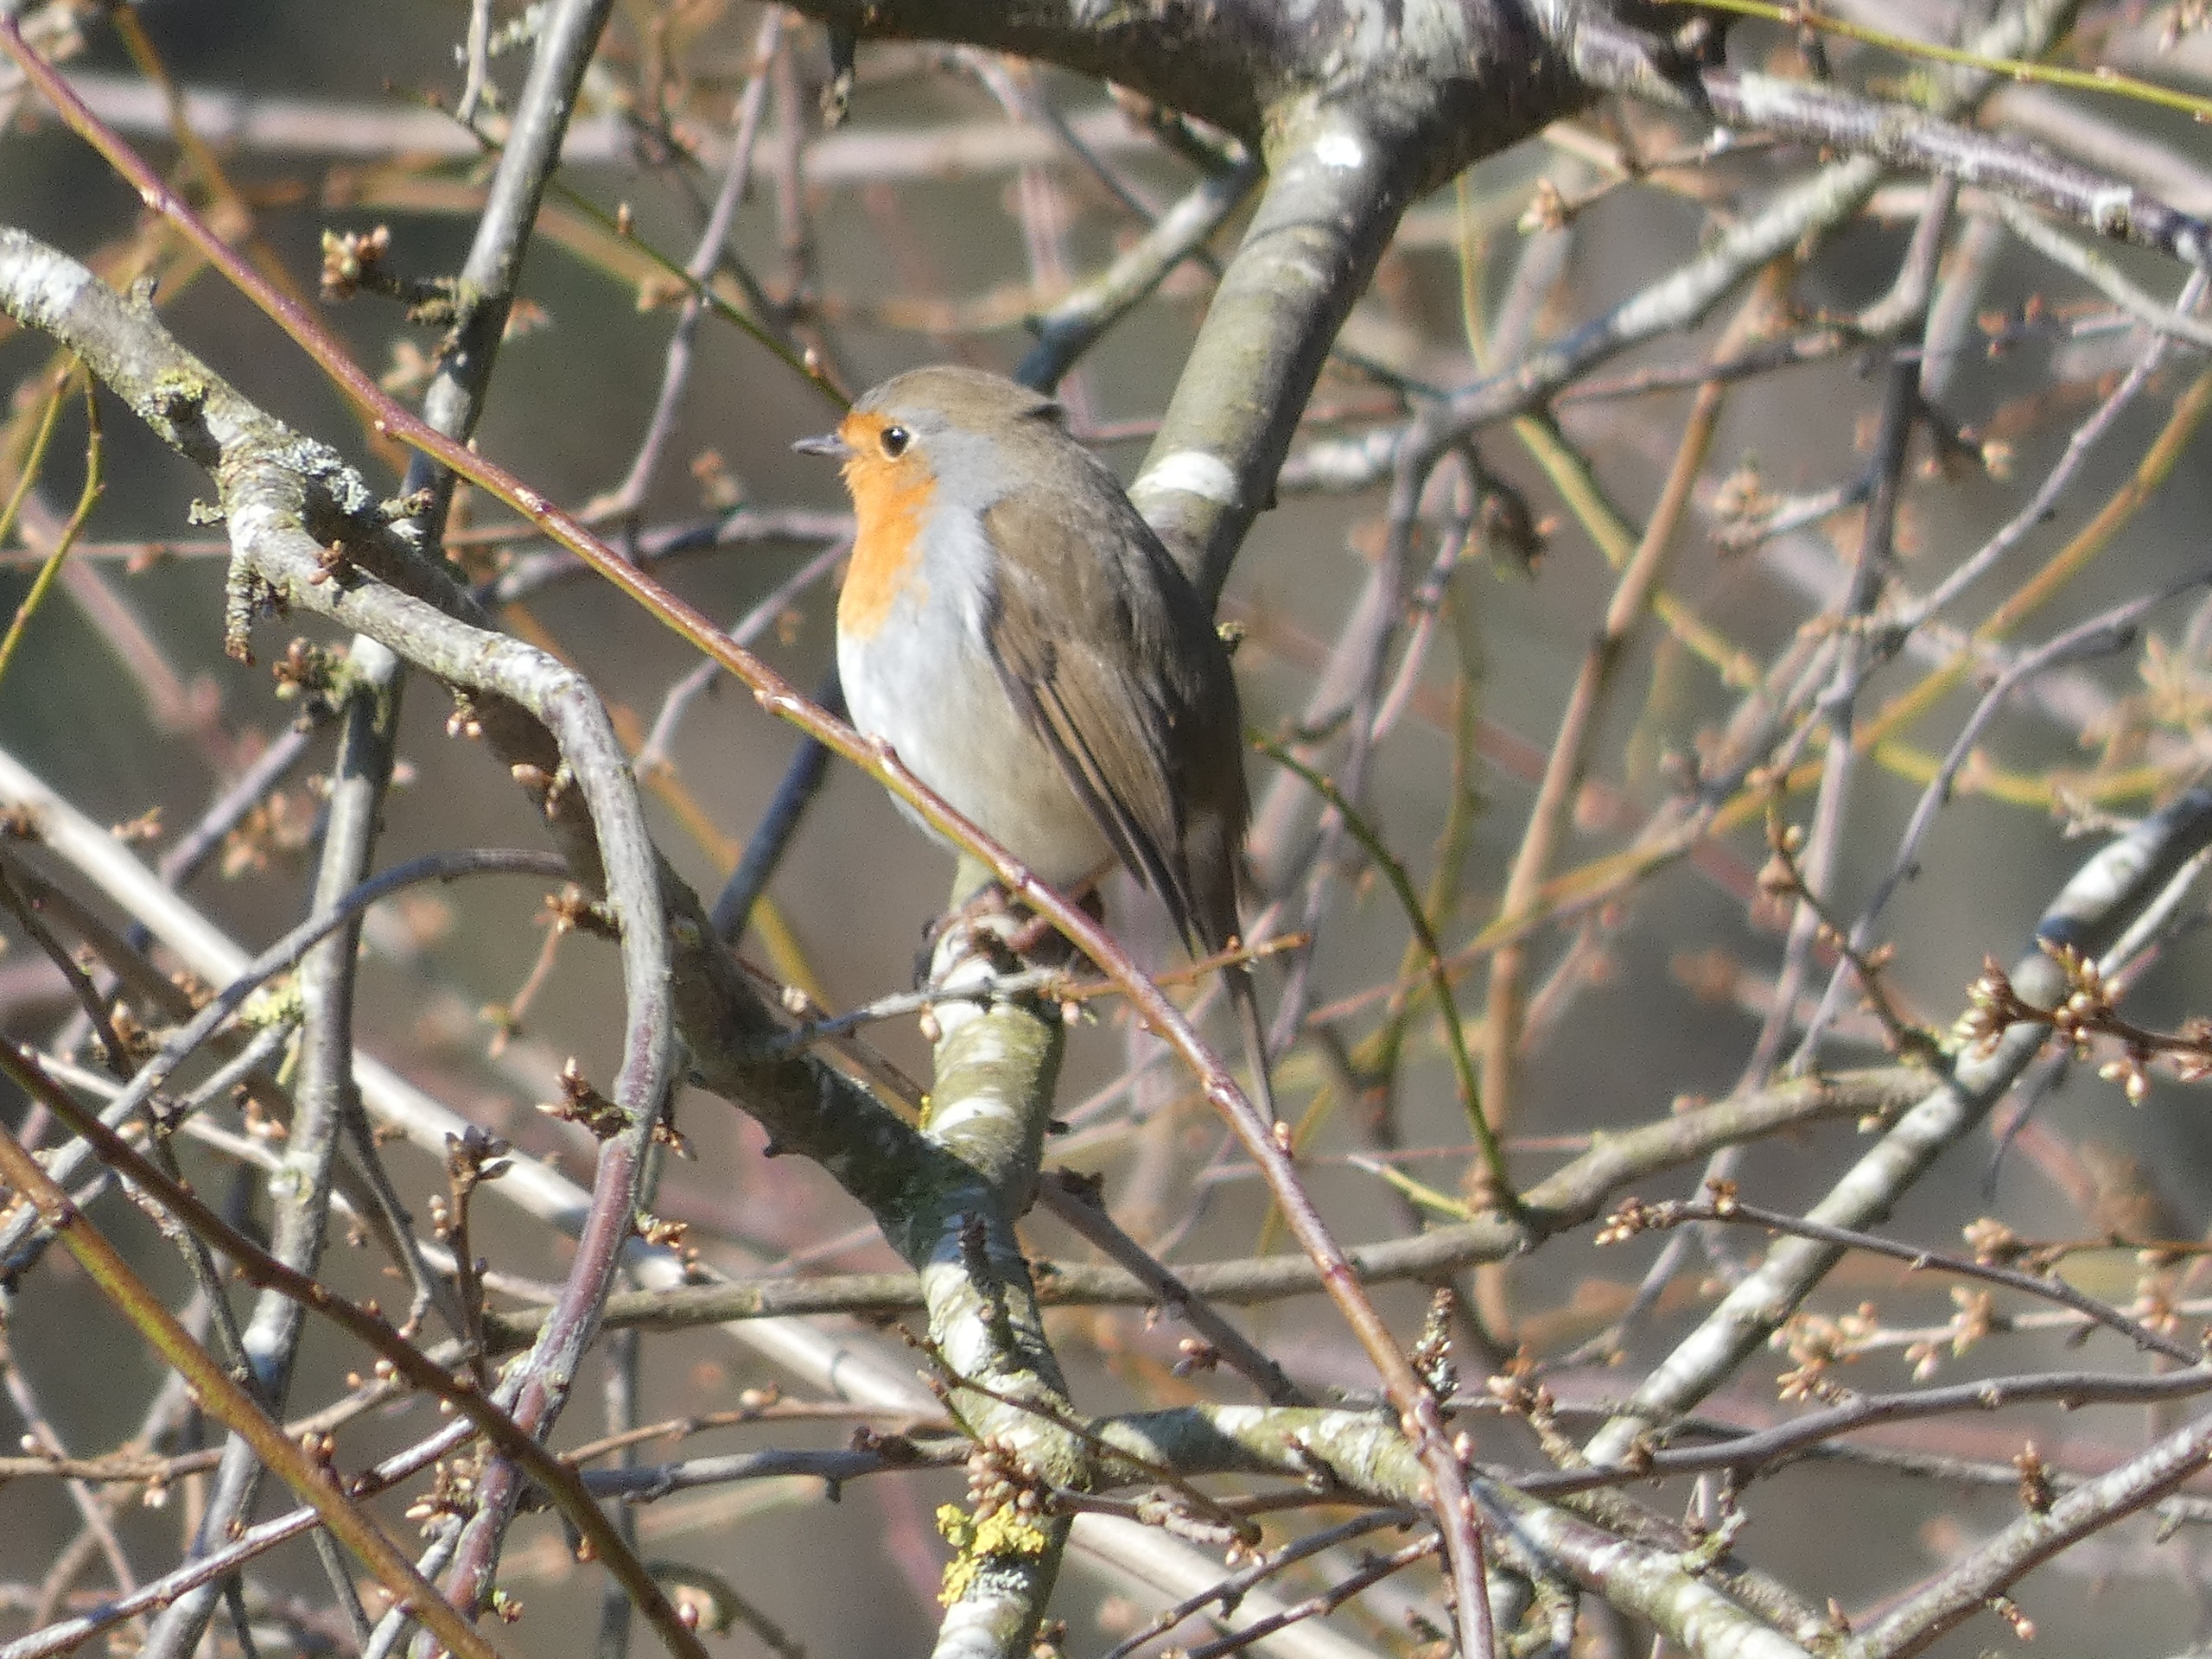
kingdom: Animalia
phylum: Chordata
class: Aves
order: Passeriformes
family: Muscicapidae
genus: Erithacus
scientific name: Erithacus rubecula
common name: Rødhals/rødkælk
